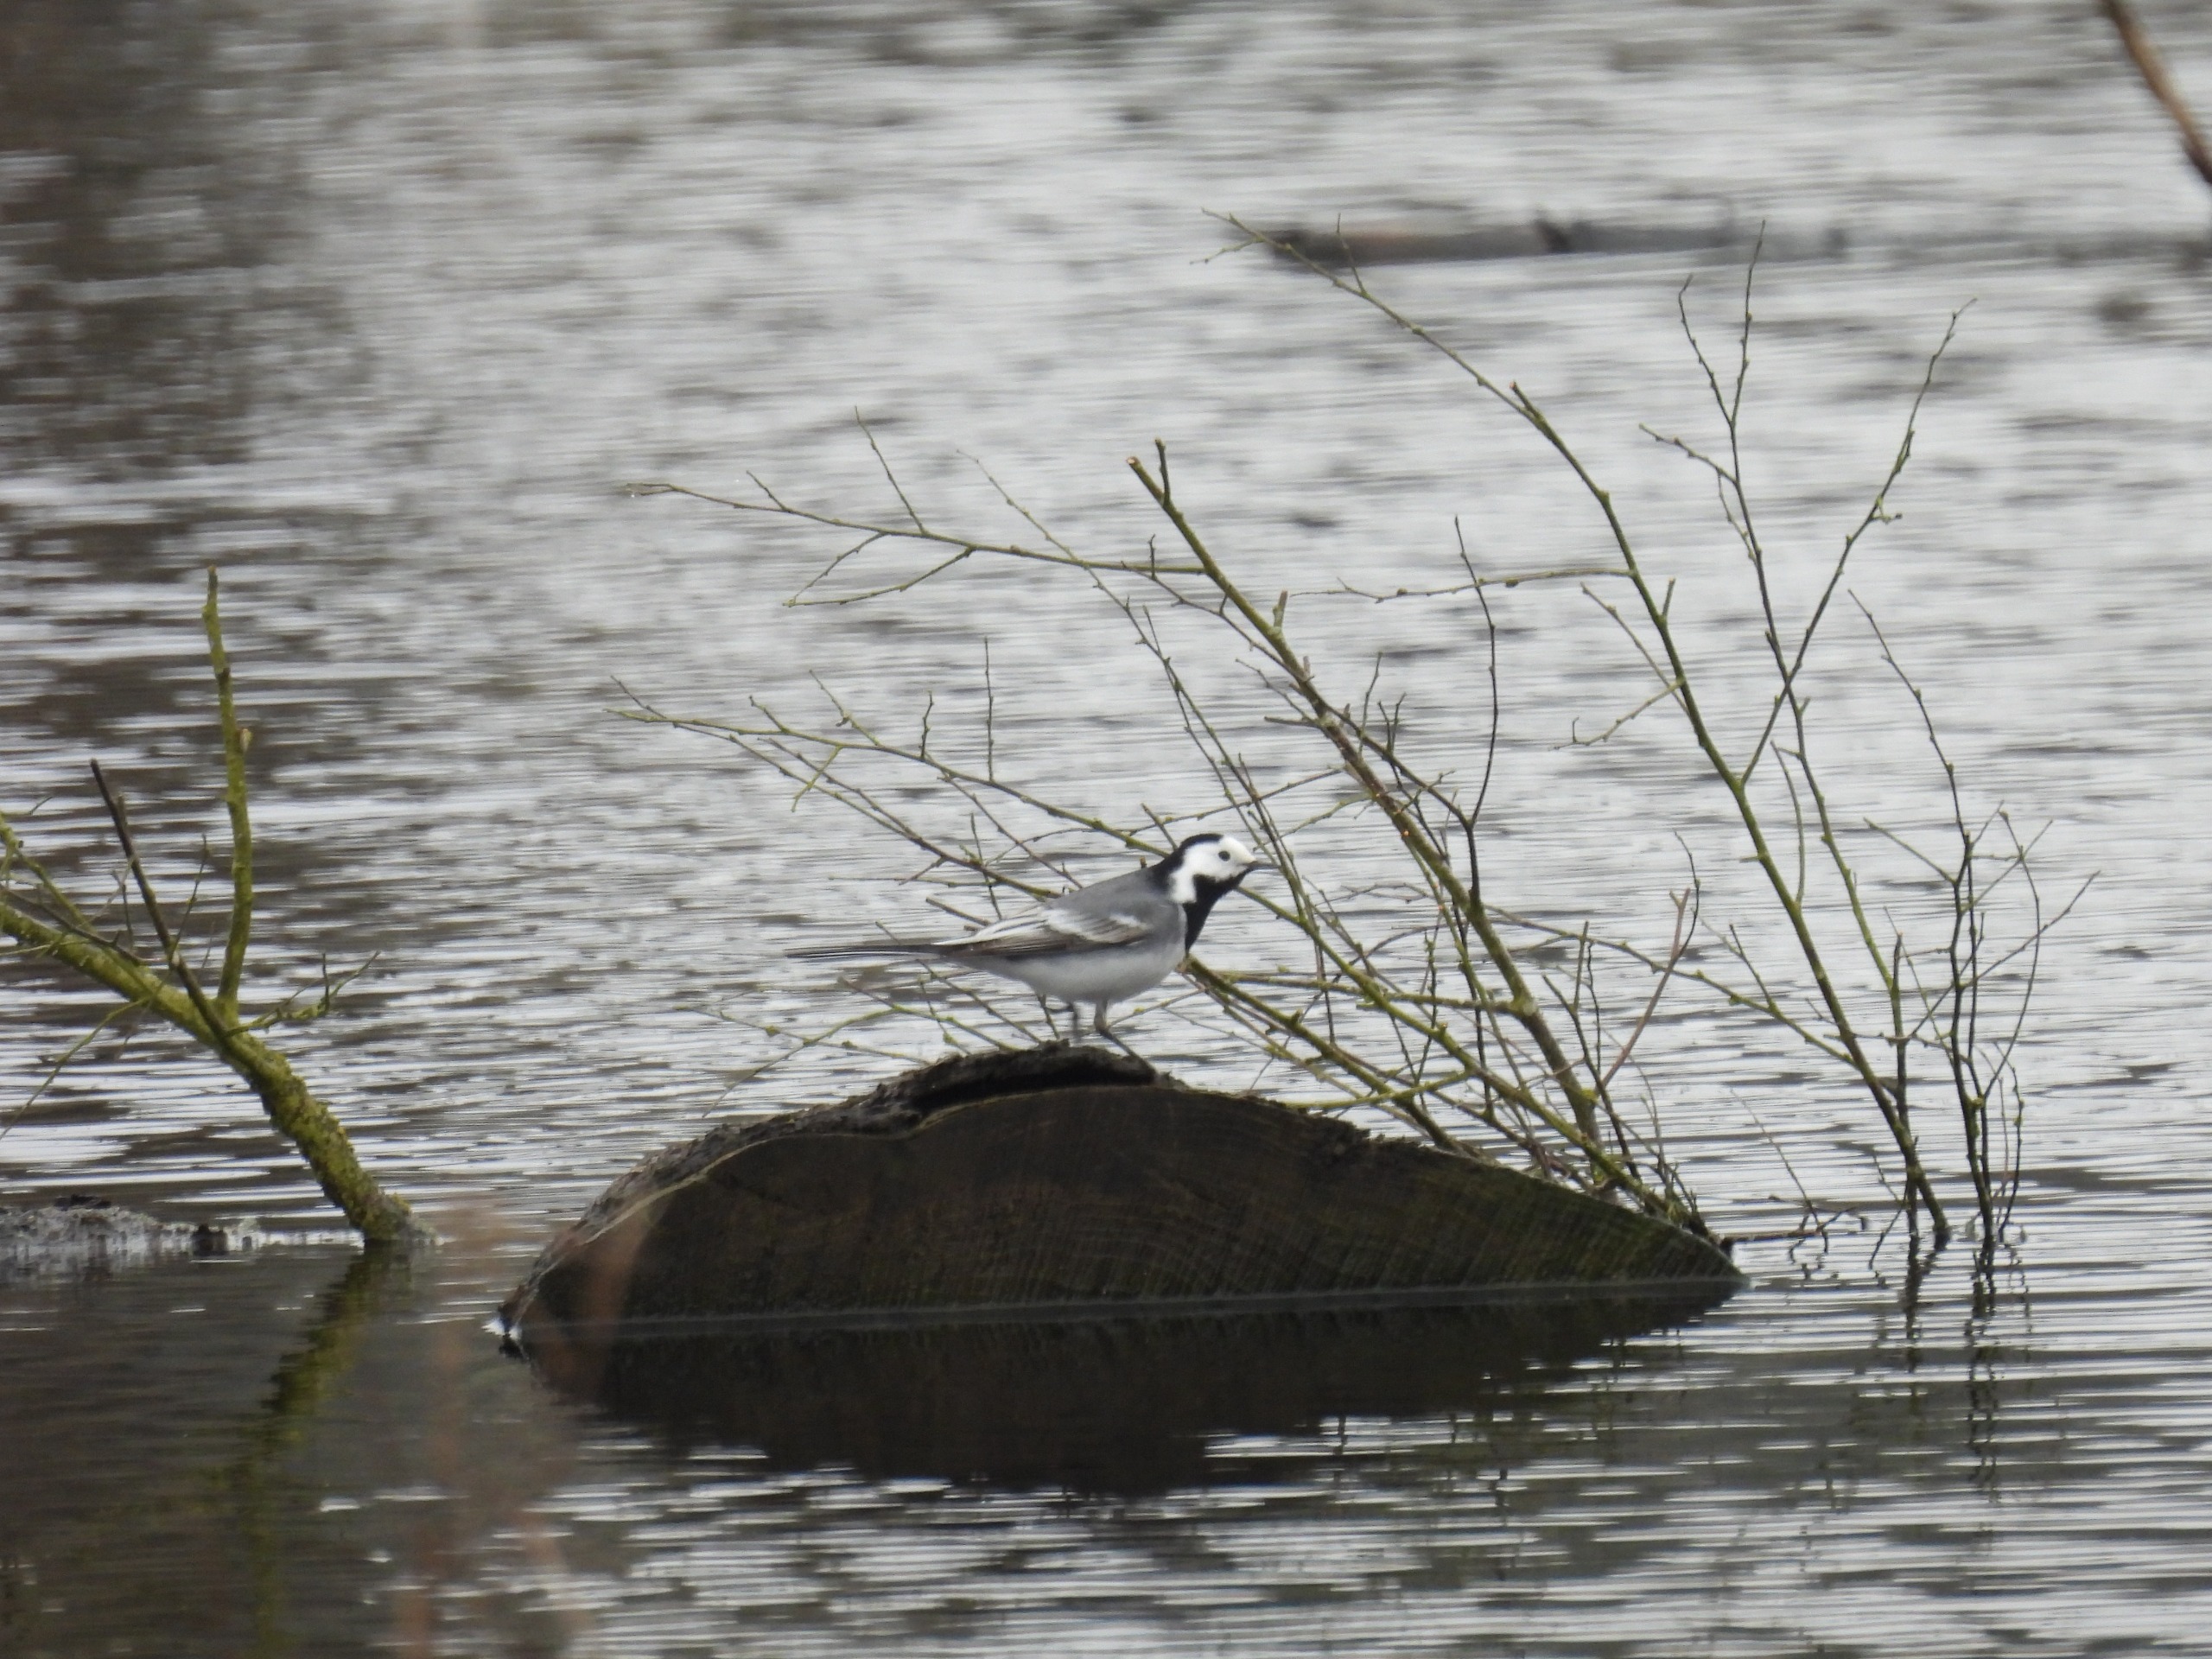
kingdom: Animalia
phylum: Chordata
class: Aves
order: Passeriformes
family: Motacillidae
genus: Motacilla
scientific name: Motacilla alba
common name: Hvid vipstjert
